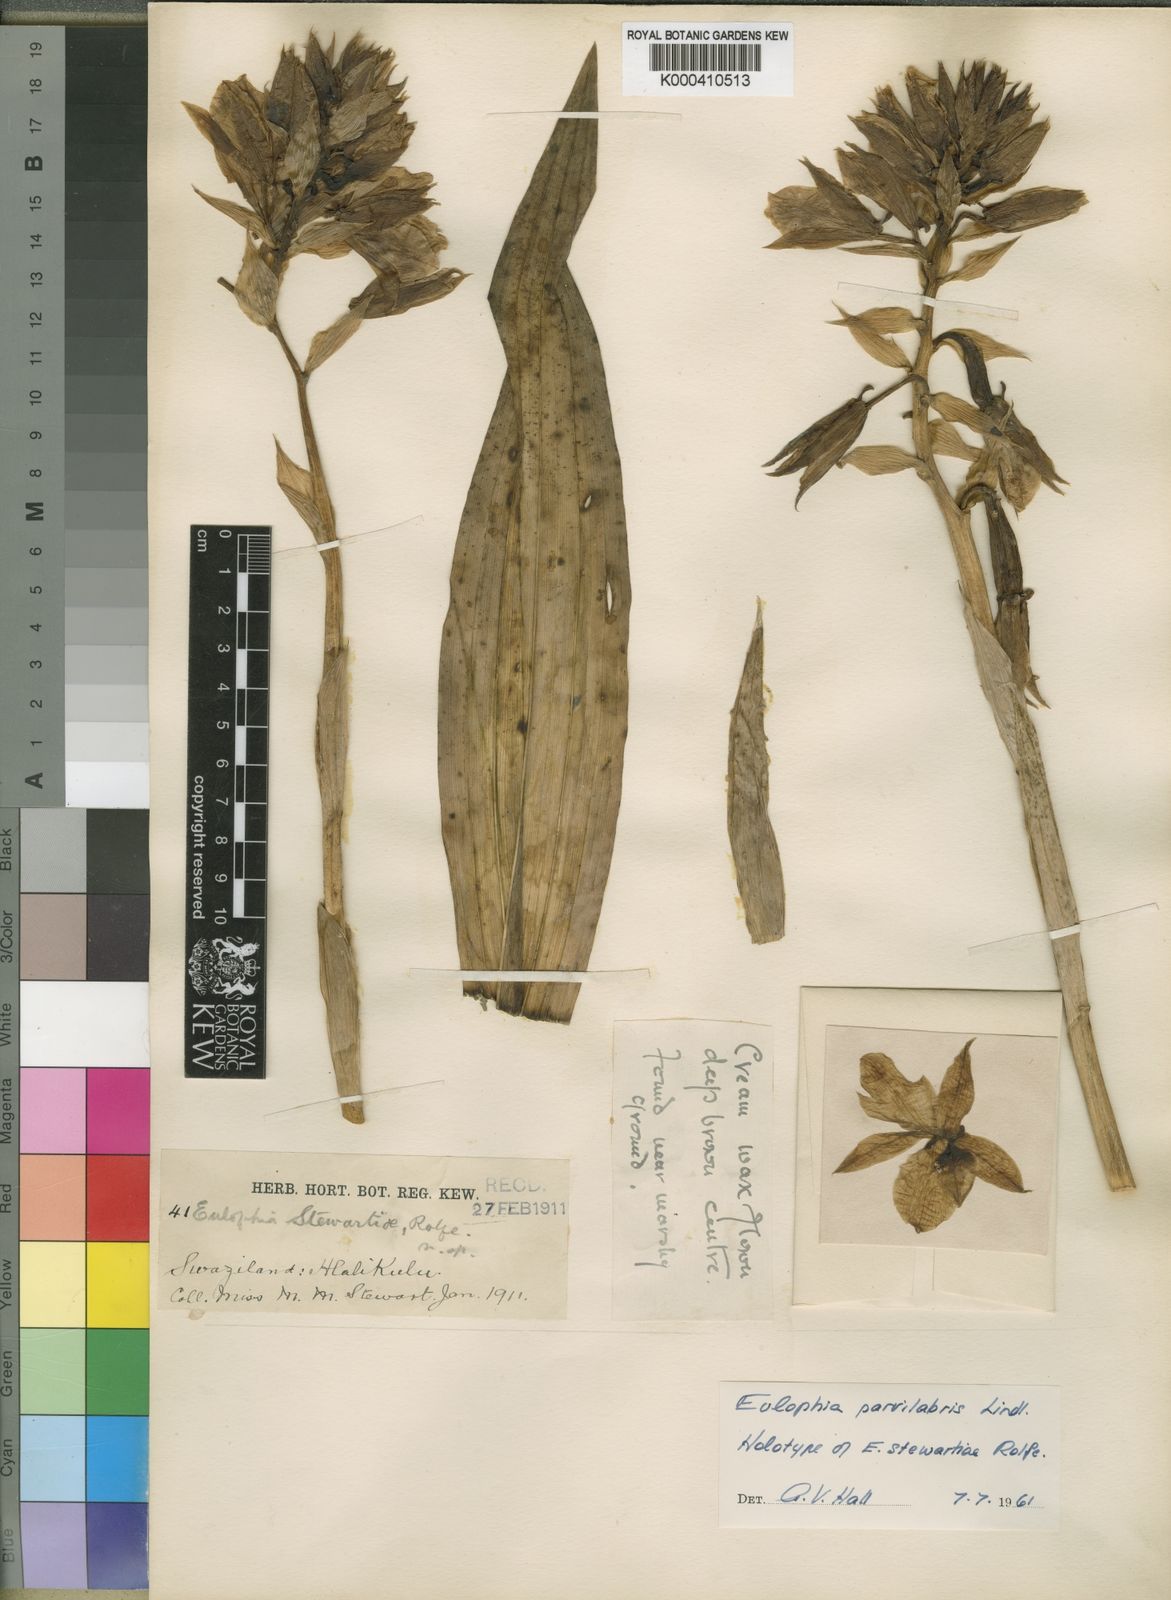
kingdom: Plantae
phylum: Tracheophyta
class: Liliopsida
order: Asparagales
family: Orchidaceae
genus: Eulophia
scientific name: Eulophia parvilabris
